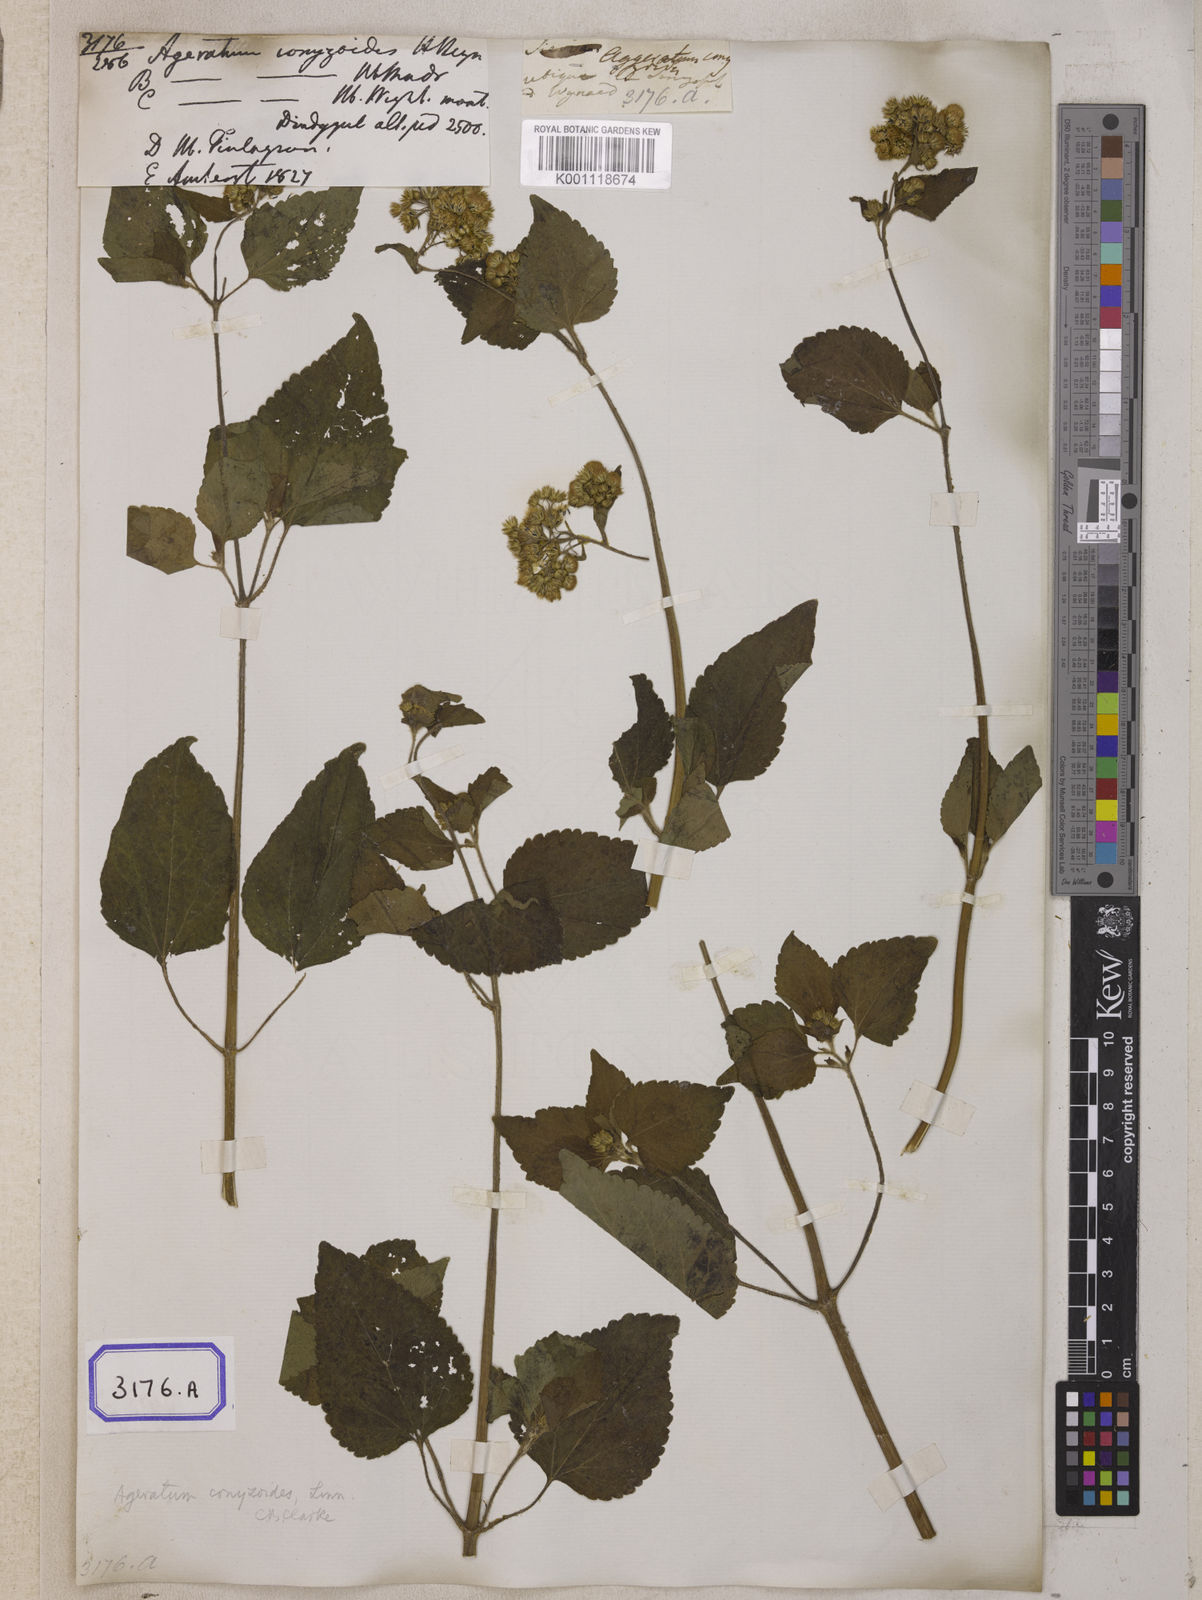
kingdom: Plantae
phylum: Tracheophyta
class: Magnoliopsida
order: Asterales
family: Asteraceae
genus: Ageratum
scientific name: Ageratum conyzoides
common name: Tropical whiteweed
